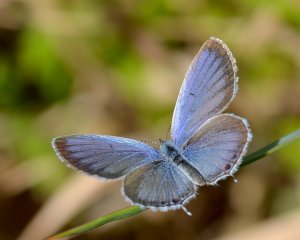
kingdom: Animalia
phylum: Arthropoda
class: Insecta
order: Lepidoptera
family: Lycaenidae
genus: Elkalyce
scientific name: Elkalyce comyntas
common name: Eastern Tailed-Blue
